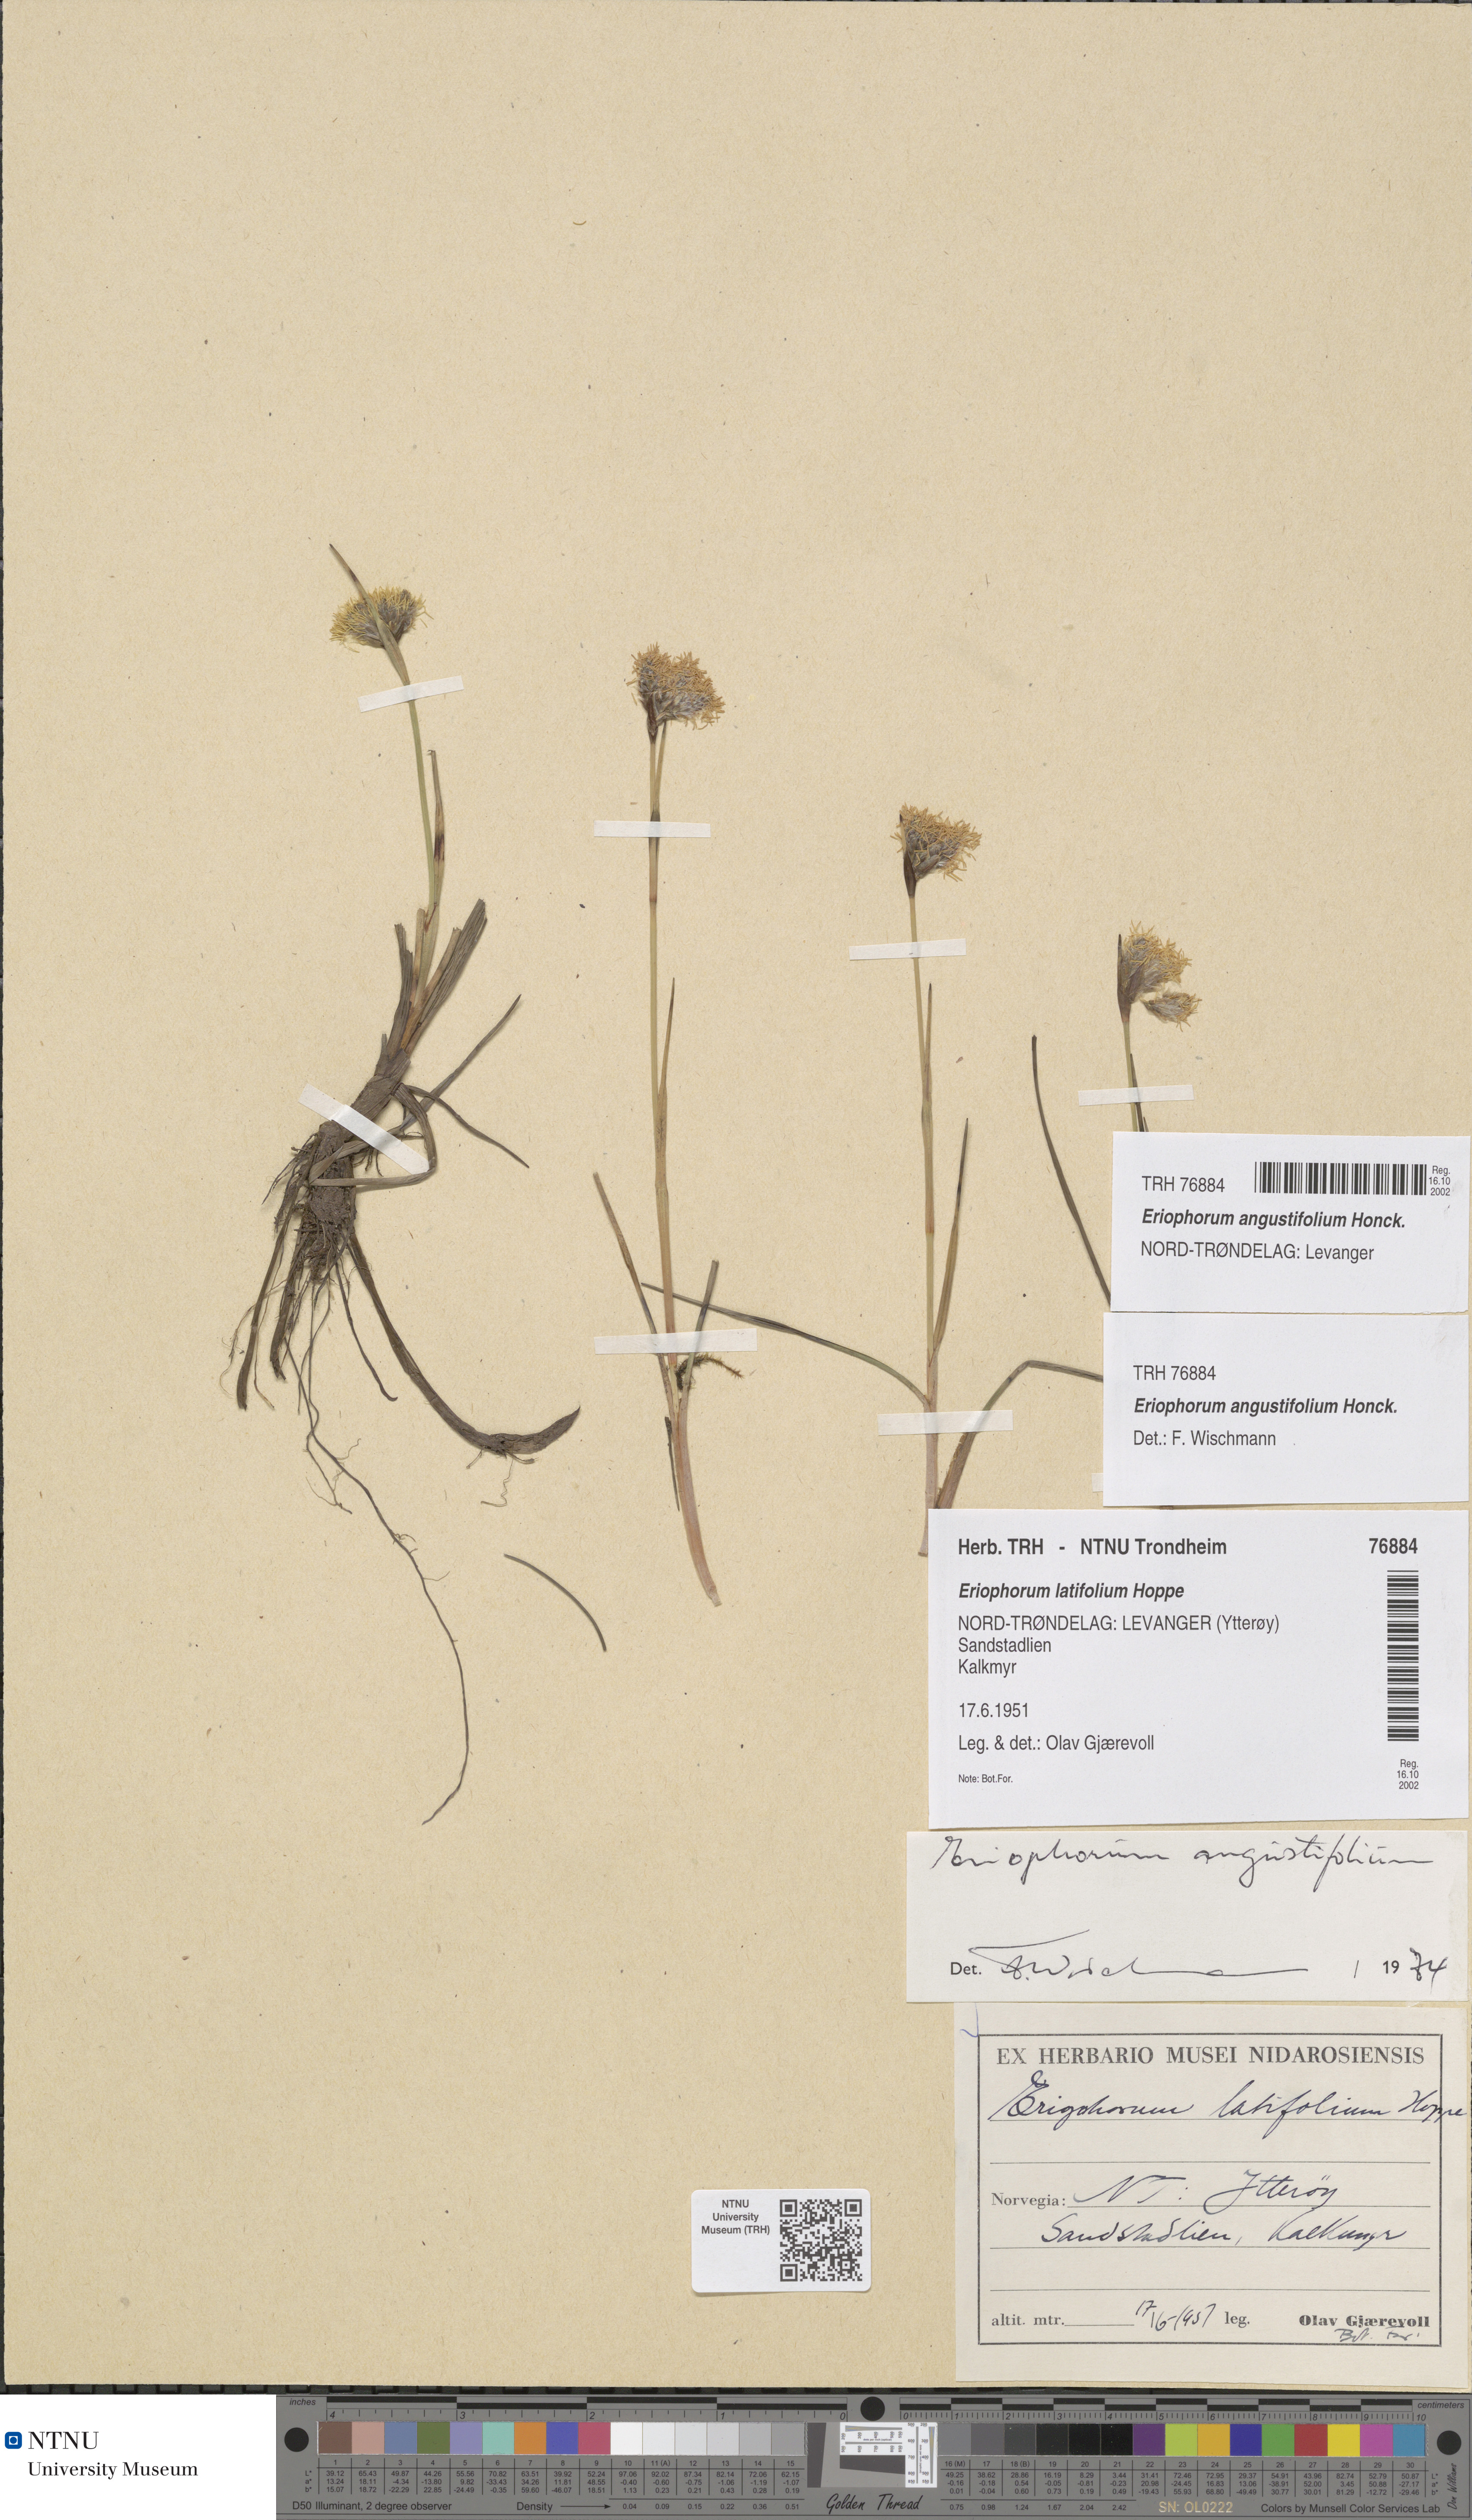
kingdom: Plantae
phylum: Tracheophyta
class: Liliopsida
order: Poales
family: Cyperaceae
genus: Eriophorum
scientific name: Eriophorum angustifolium
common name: Common cottongrass
